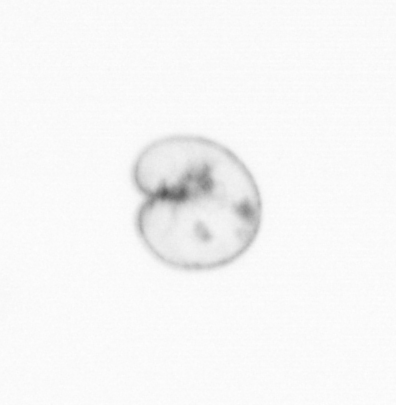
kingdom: Chromista
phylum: Myzozoa
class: Dinophyceae
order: Noctilucales
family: Noctilucaceae
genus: Noctiluca
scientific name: Noctiluca scintillans
